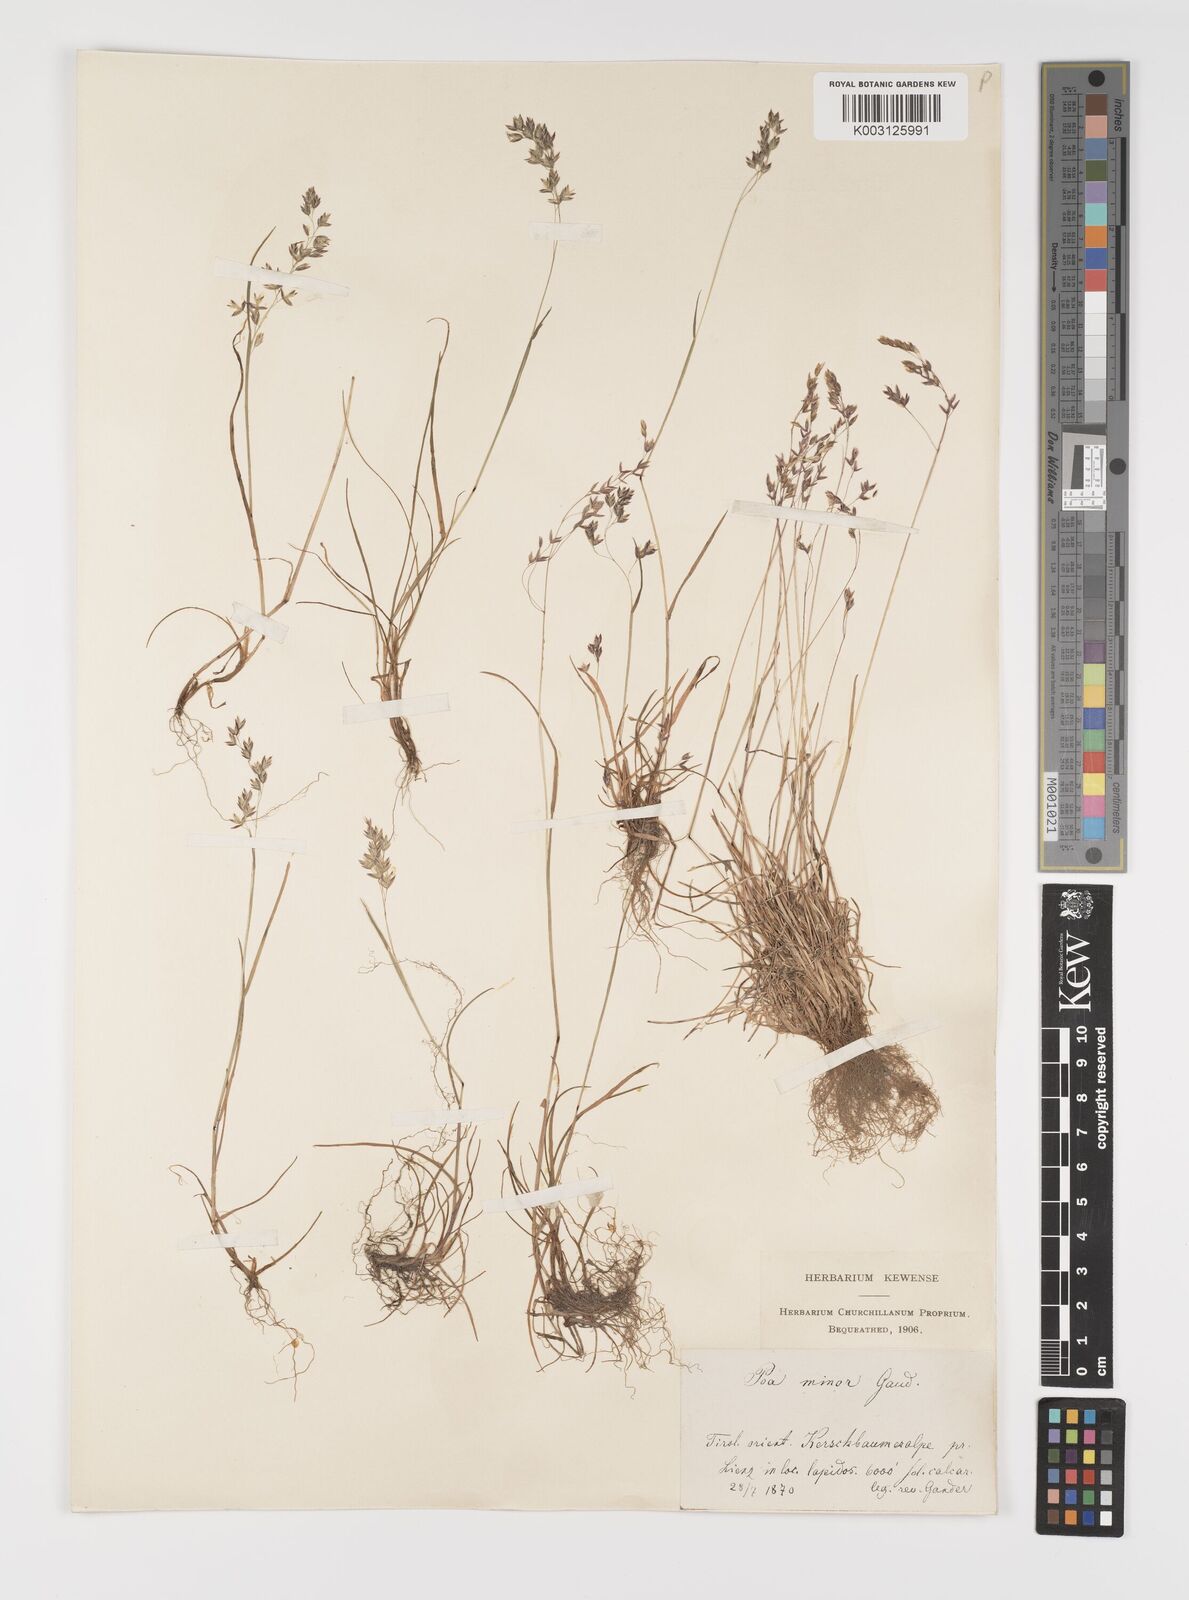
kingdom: Plantae
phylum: Tracheophyta
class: Liliopsida
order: Poales
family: Poaceae
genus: Poa
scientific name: Poa minor
